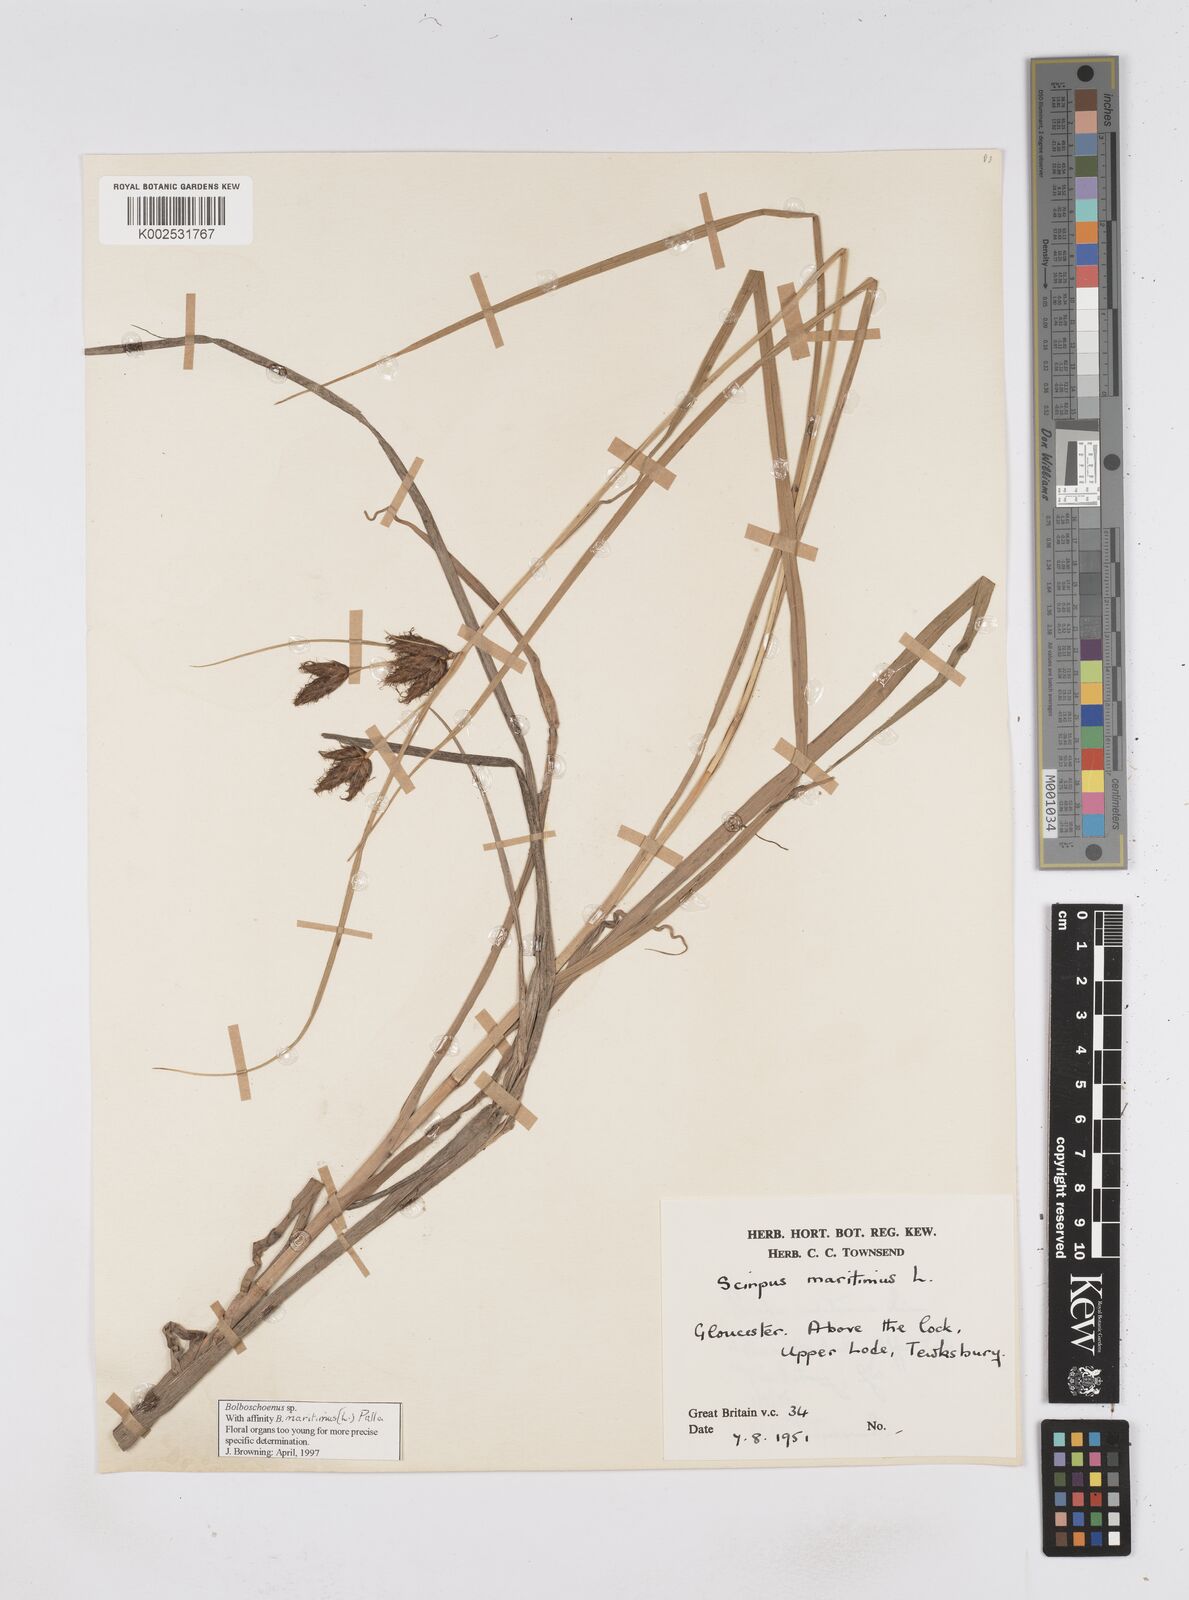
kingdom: Plantae
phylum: Tracheophyta
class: Liliopsida
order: Poales
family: Cyperaceae
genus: Bolboschoenus
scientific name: Bolboschoenus maritimus
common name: Sea club-rush
